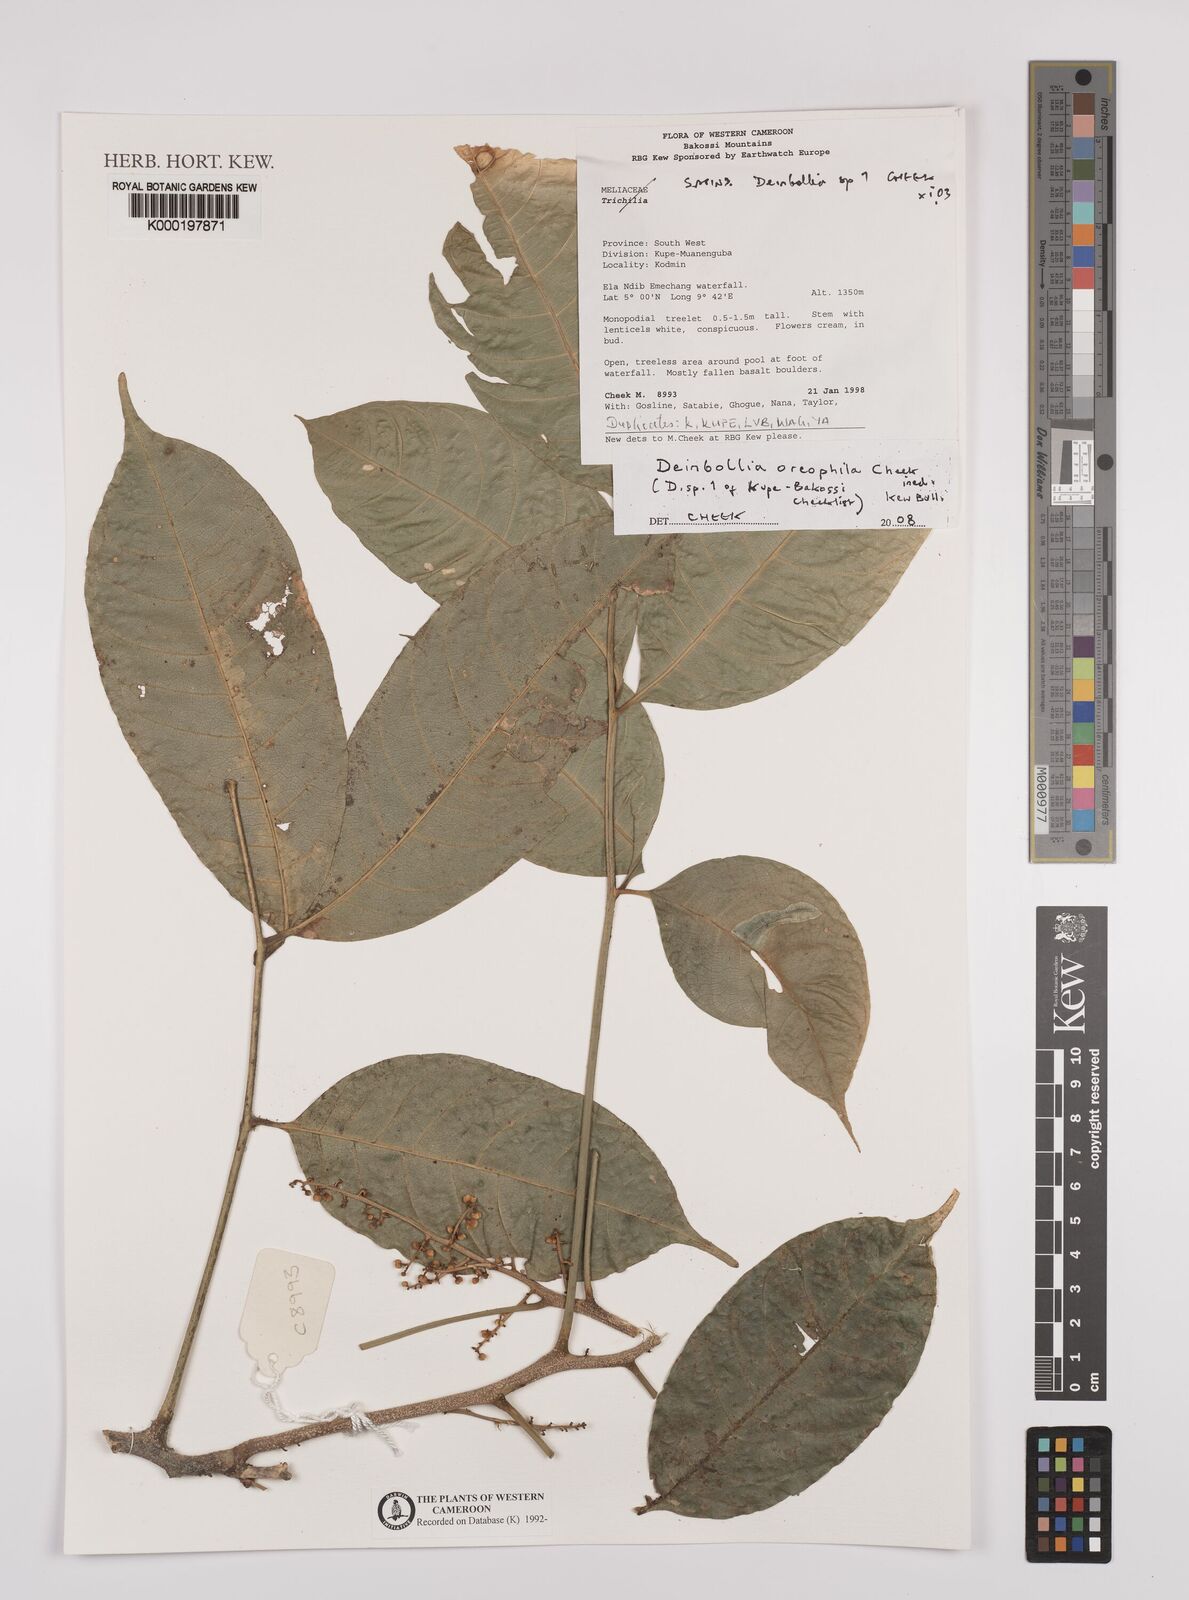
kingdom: Plantae
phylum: Tracheophyta
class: Magnoliopsida
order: Sapindales
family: Sapindaceae
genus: Deinbollia
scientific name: Deinbollia oreophila
